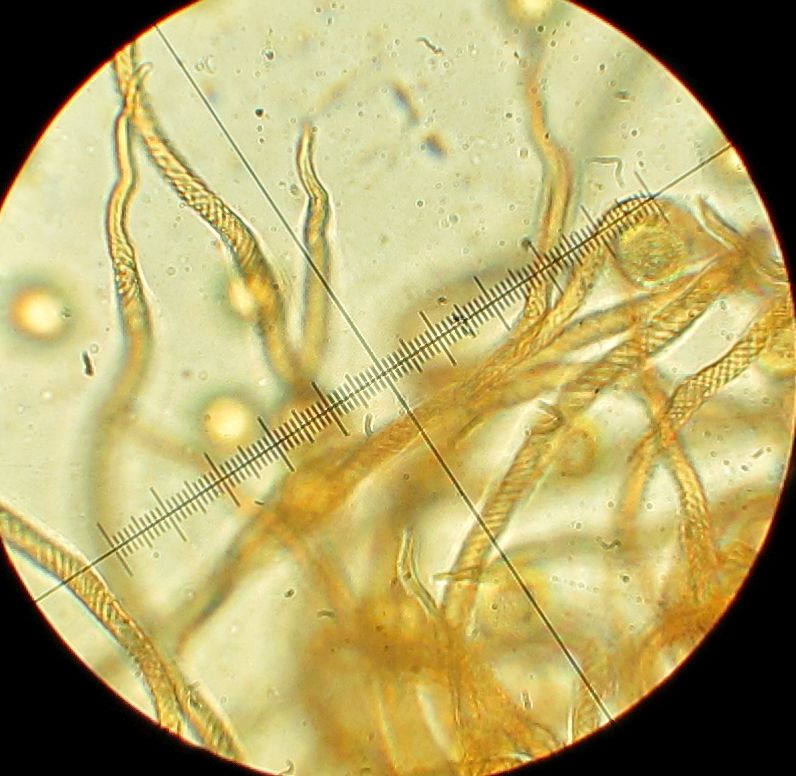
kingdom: Protozoa
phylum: Mycetozoa
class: Myxomycetes
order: Trichiales
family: Trichiaceae
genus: Trichia
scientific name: Trichia contorta
